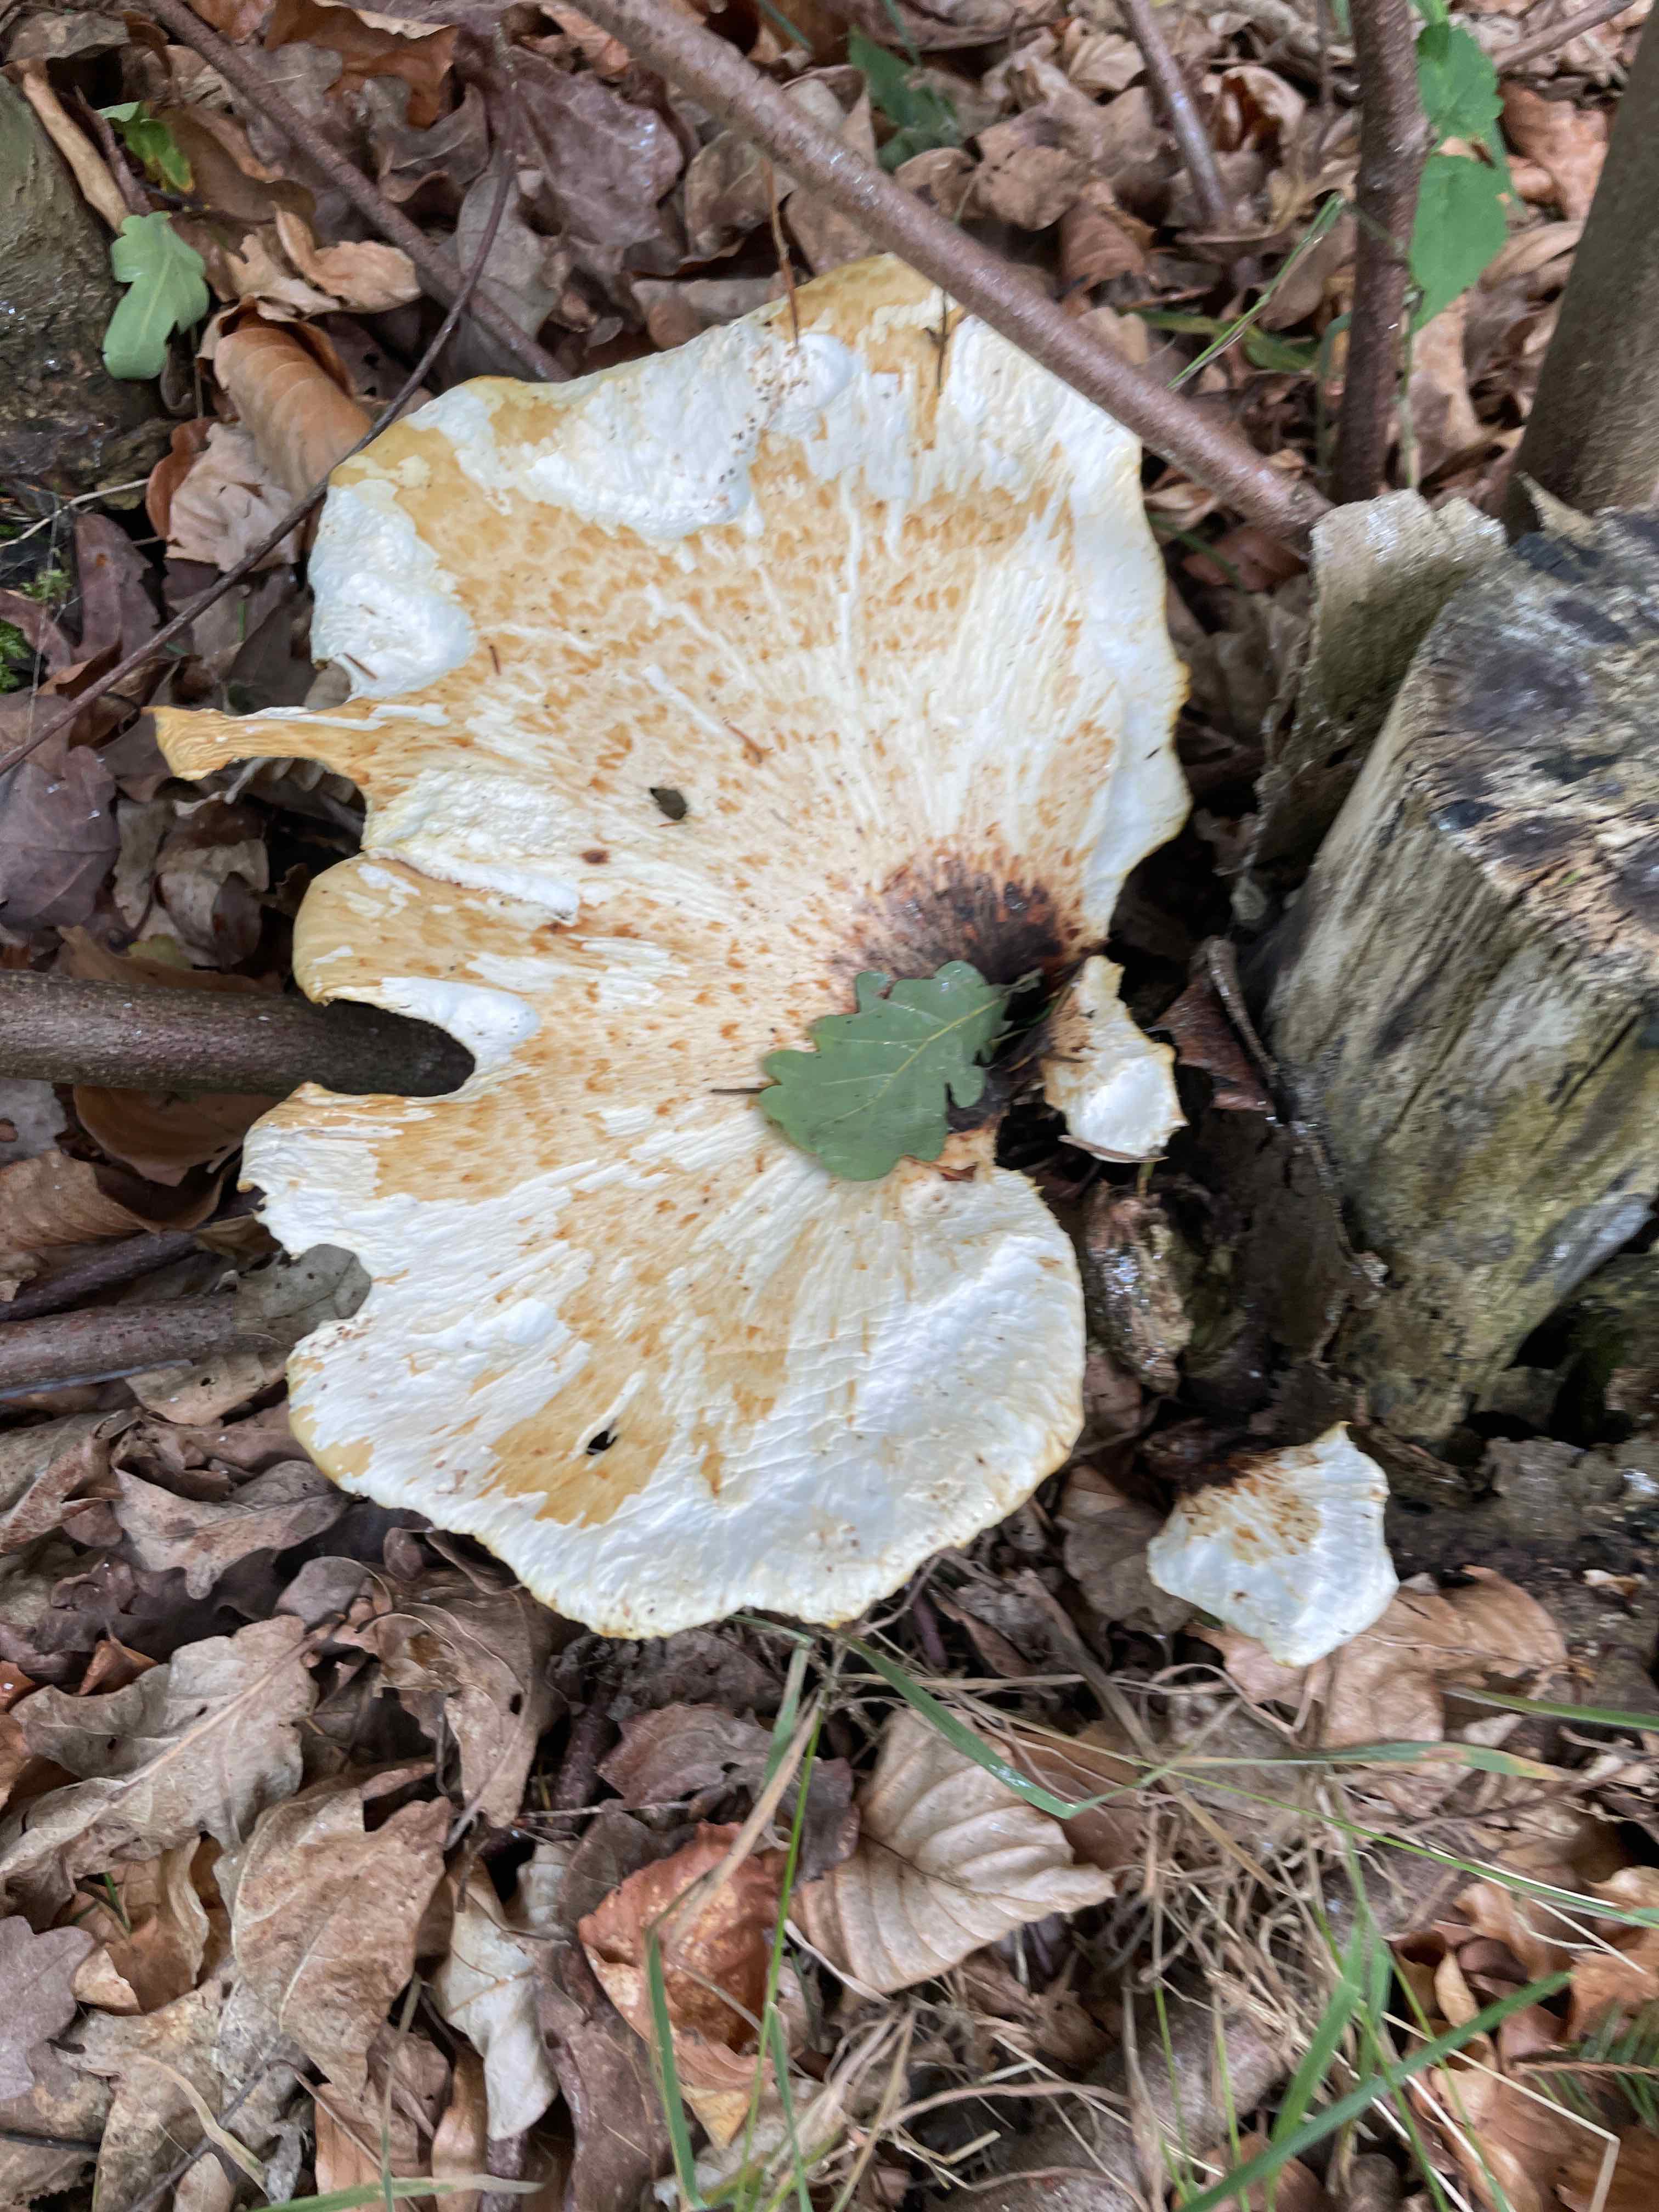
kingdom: Fungi
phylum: Basidiomycota
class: Agaricomycetes
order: Polyporales
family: Polyporaceae
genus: Cerioporus
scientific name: Cerioporus squamosus
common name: skællet stilkporesvamp
